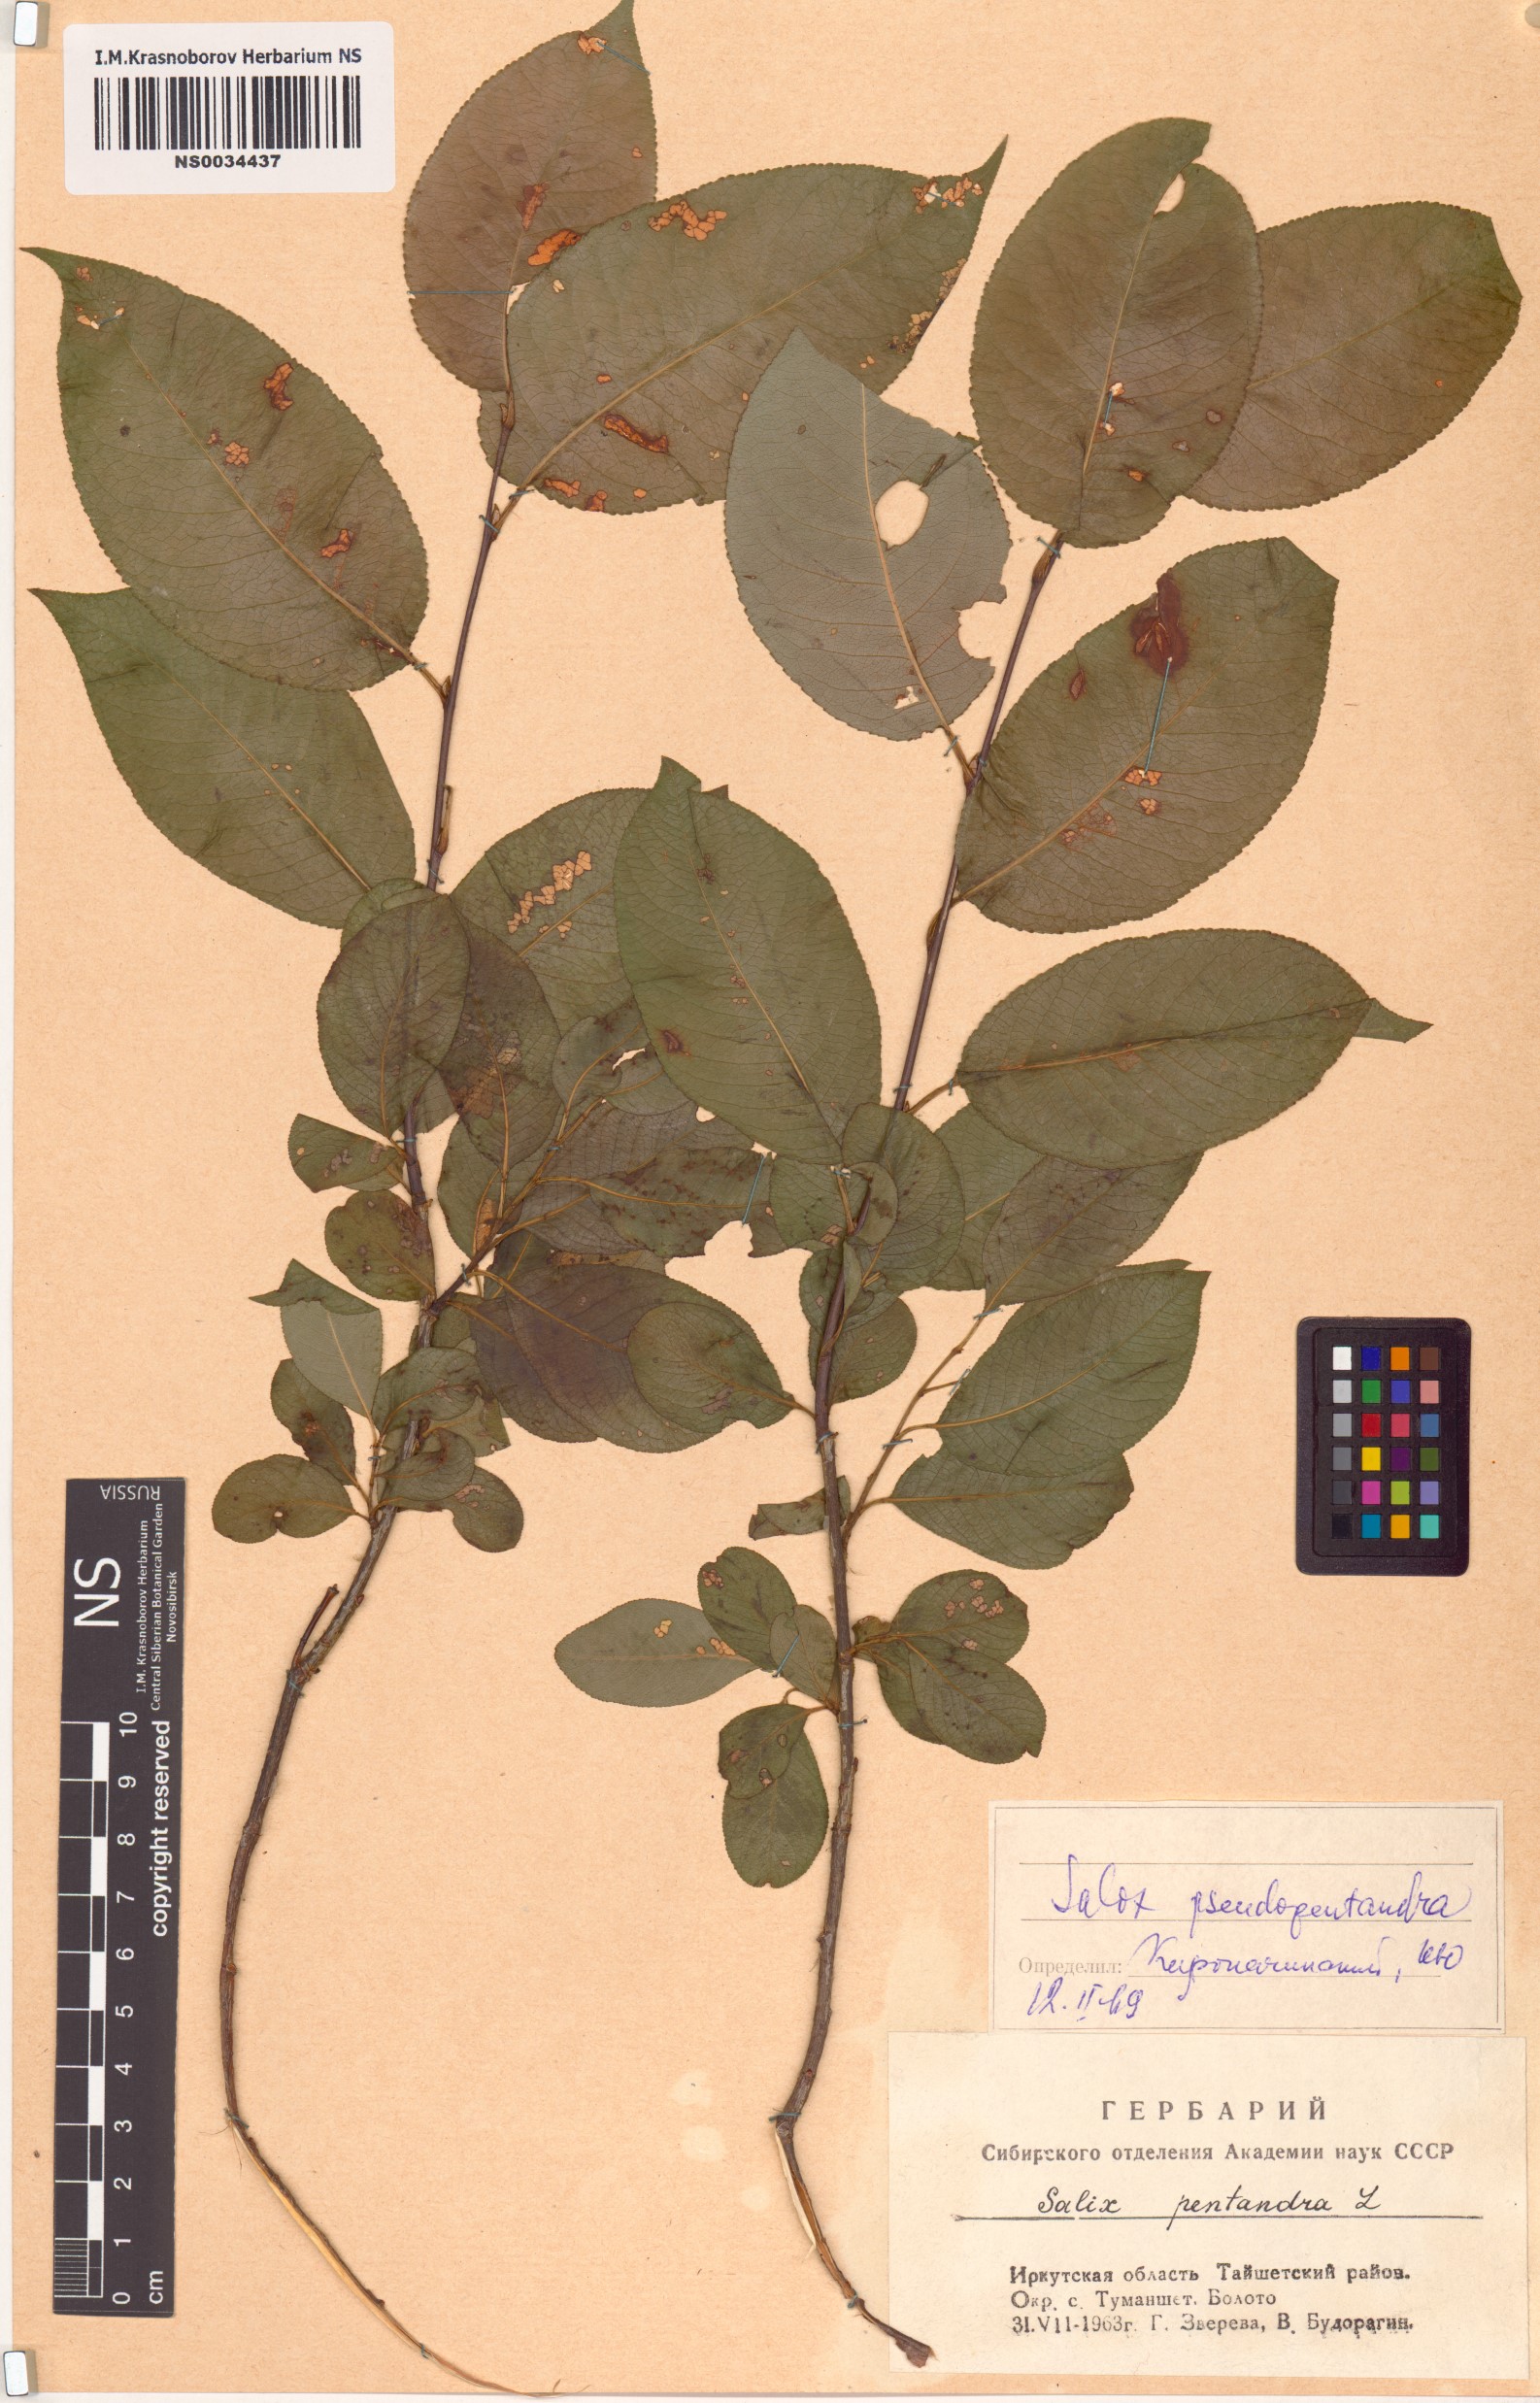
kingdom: Plantae
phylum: Tracheophyta
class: Magnoliopsida
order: Malpighiales
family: Salicaceae
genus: Salix
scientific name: Salix pseudopentandra
